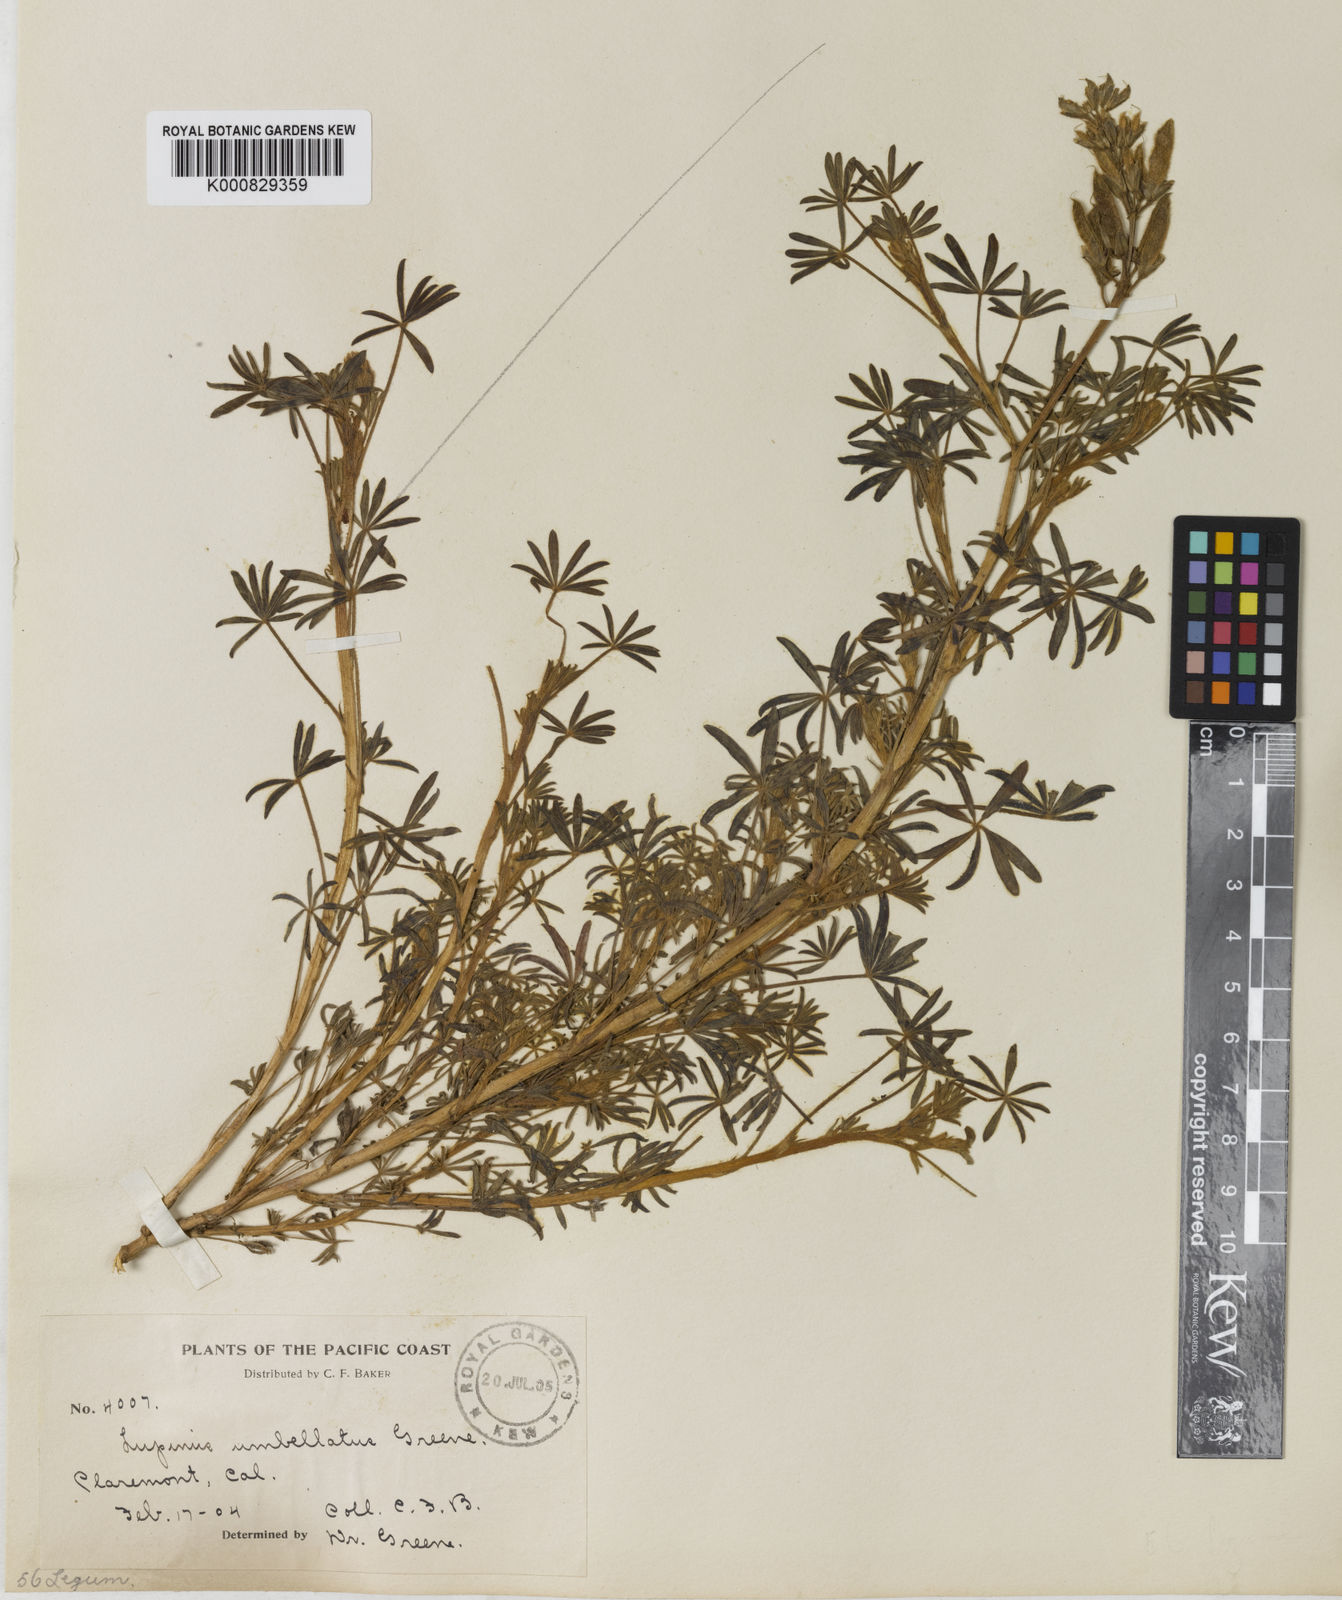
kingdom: Plantae
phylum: Tracheophyta
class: Magnoliopsida
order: Fabales
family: Fabaceae
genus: Lupinus
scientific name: Lupinus bicolor
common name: Miniature lupine
